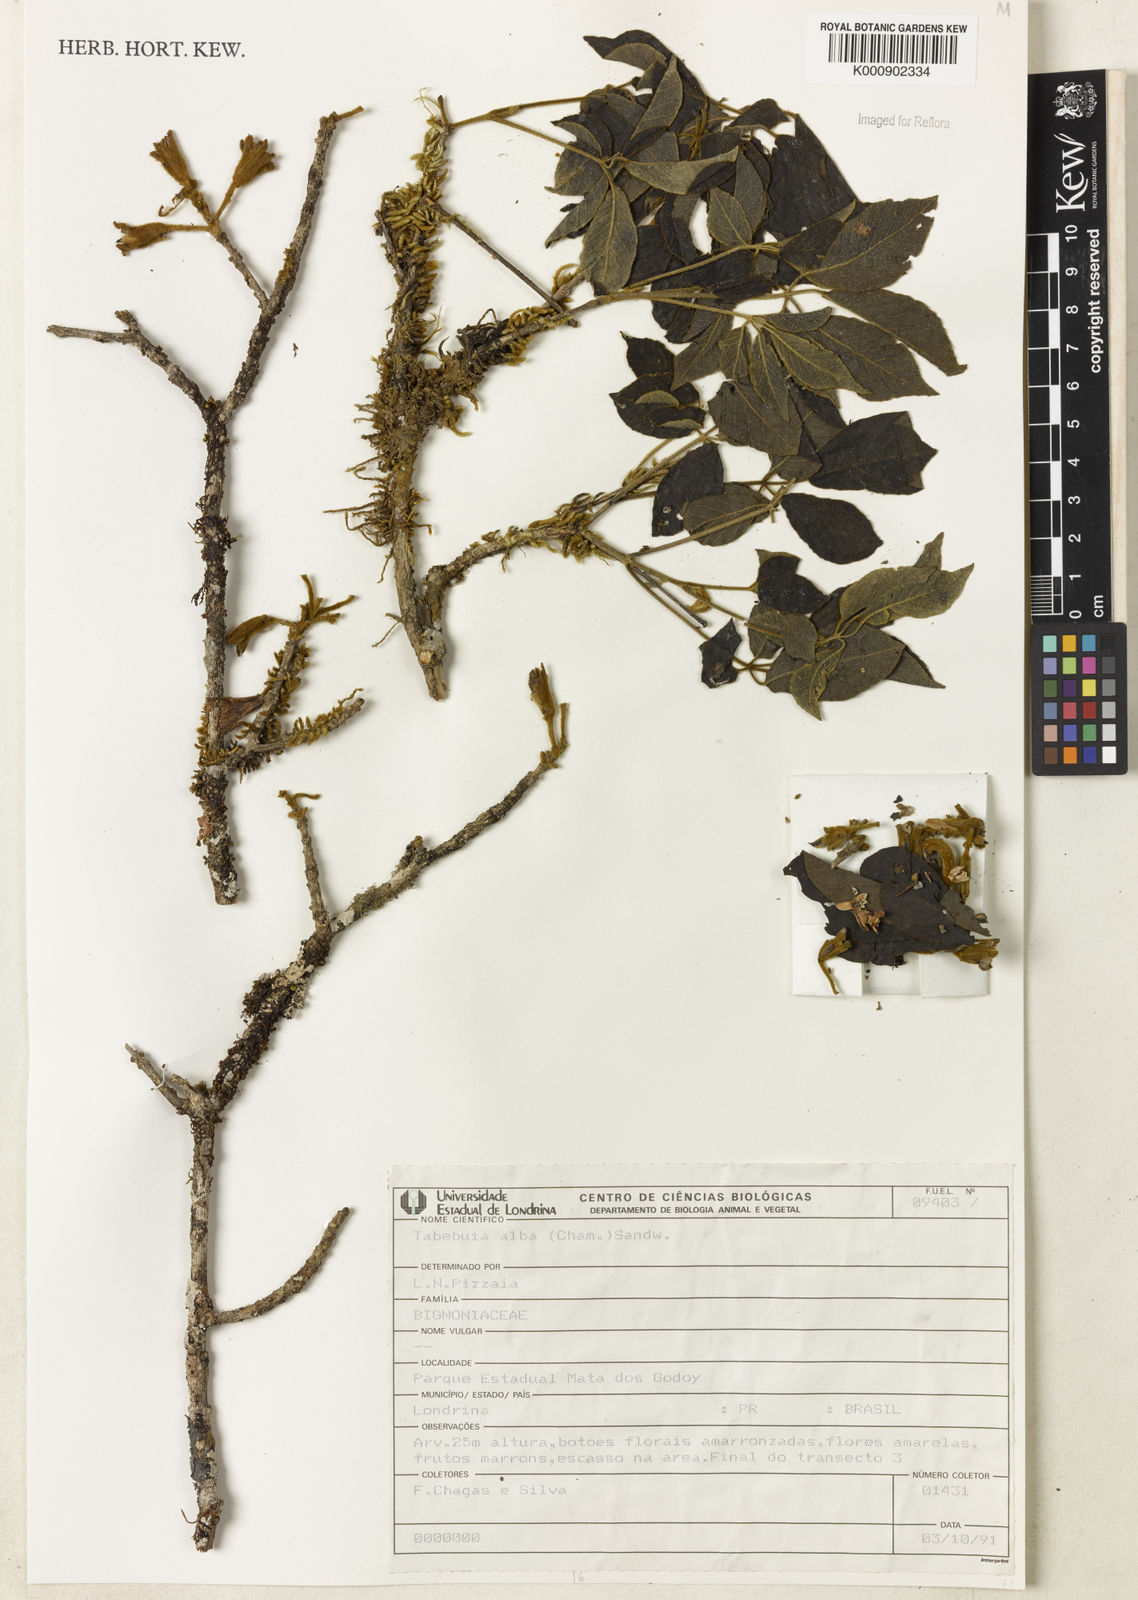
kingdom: Plantae
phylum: Tracheophyta
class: Magnoliopsida
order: Lamiales
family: Bignoniaceae
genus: Handroanthus
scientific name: Handroanthus albus
